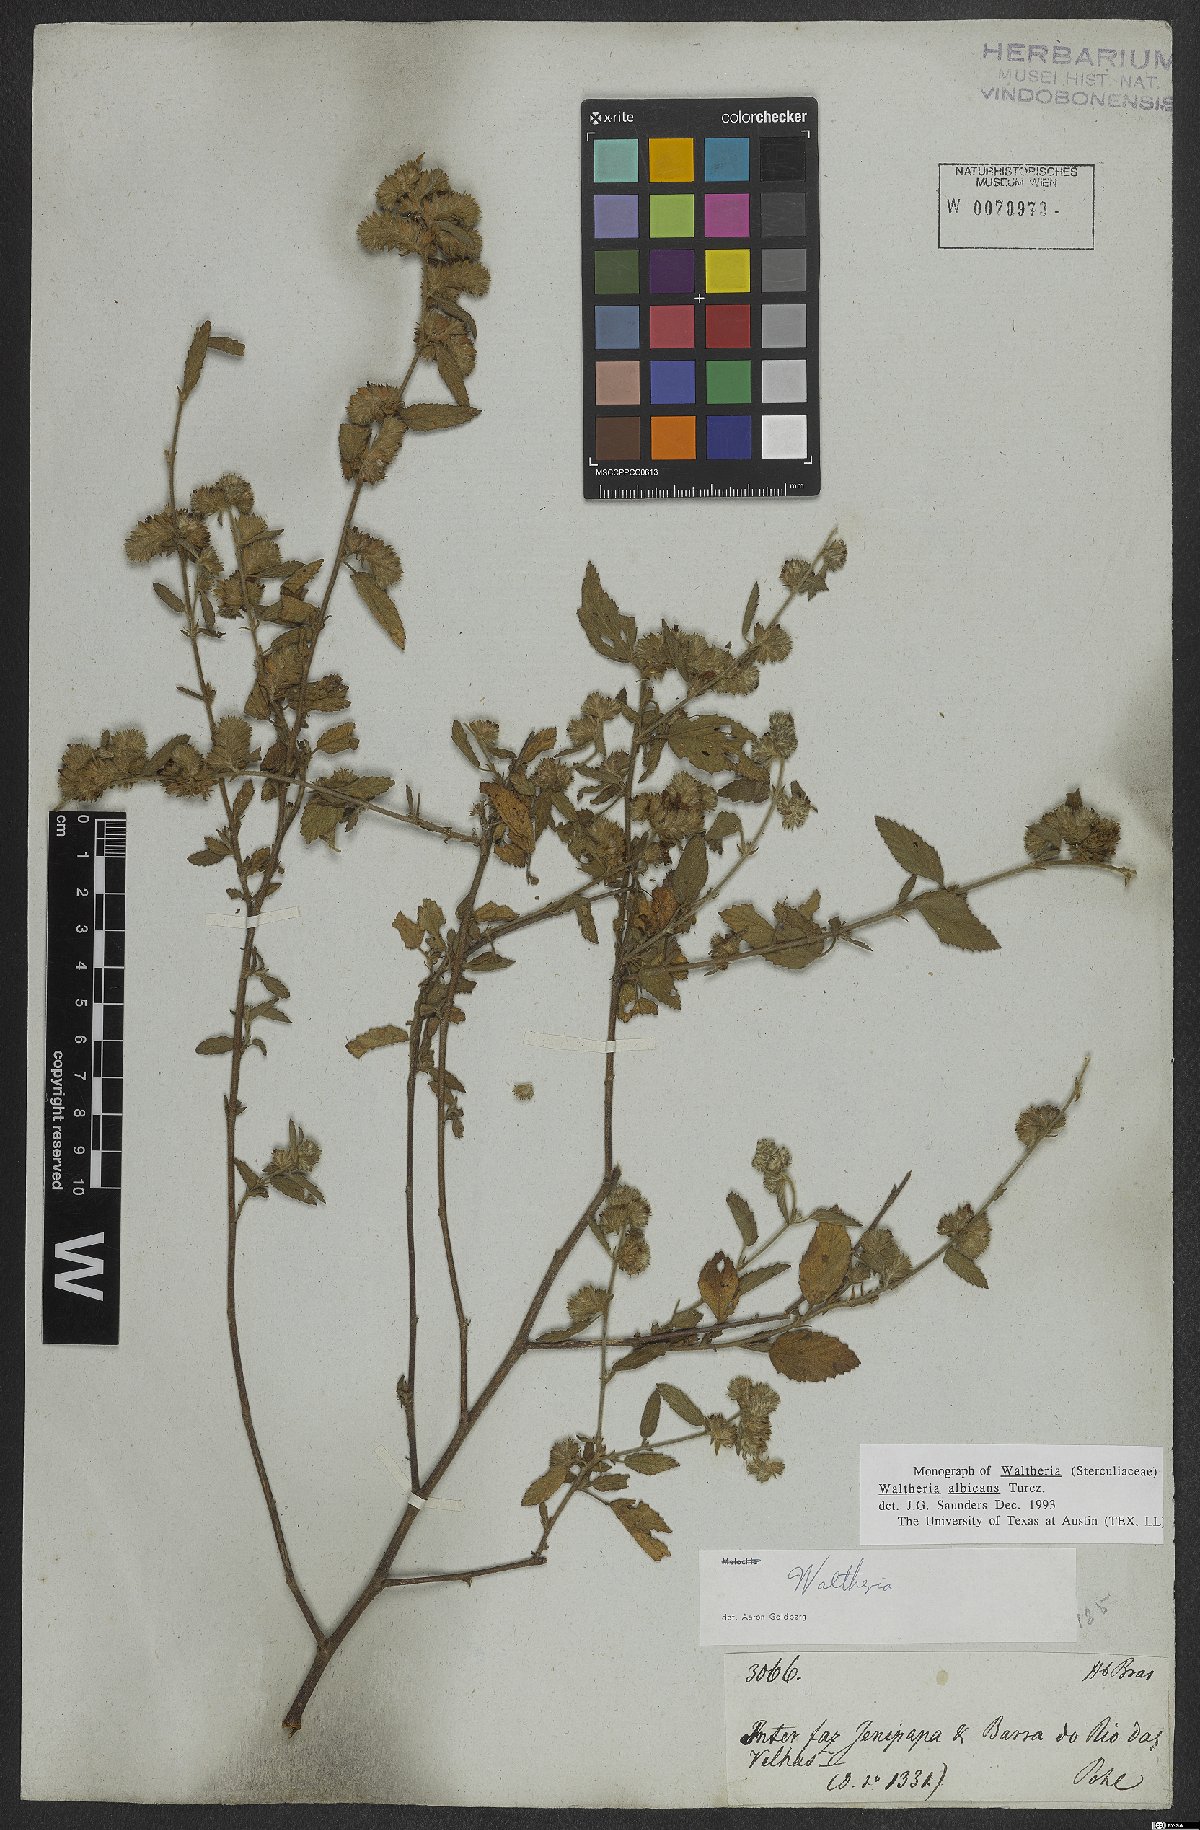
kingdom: Plantae
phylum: Tracheophyta
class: Magnoliopsida
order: Malvales
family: Malvaceae
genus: Waltheria
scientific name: Waltheria albicans
